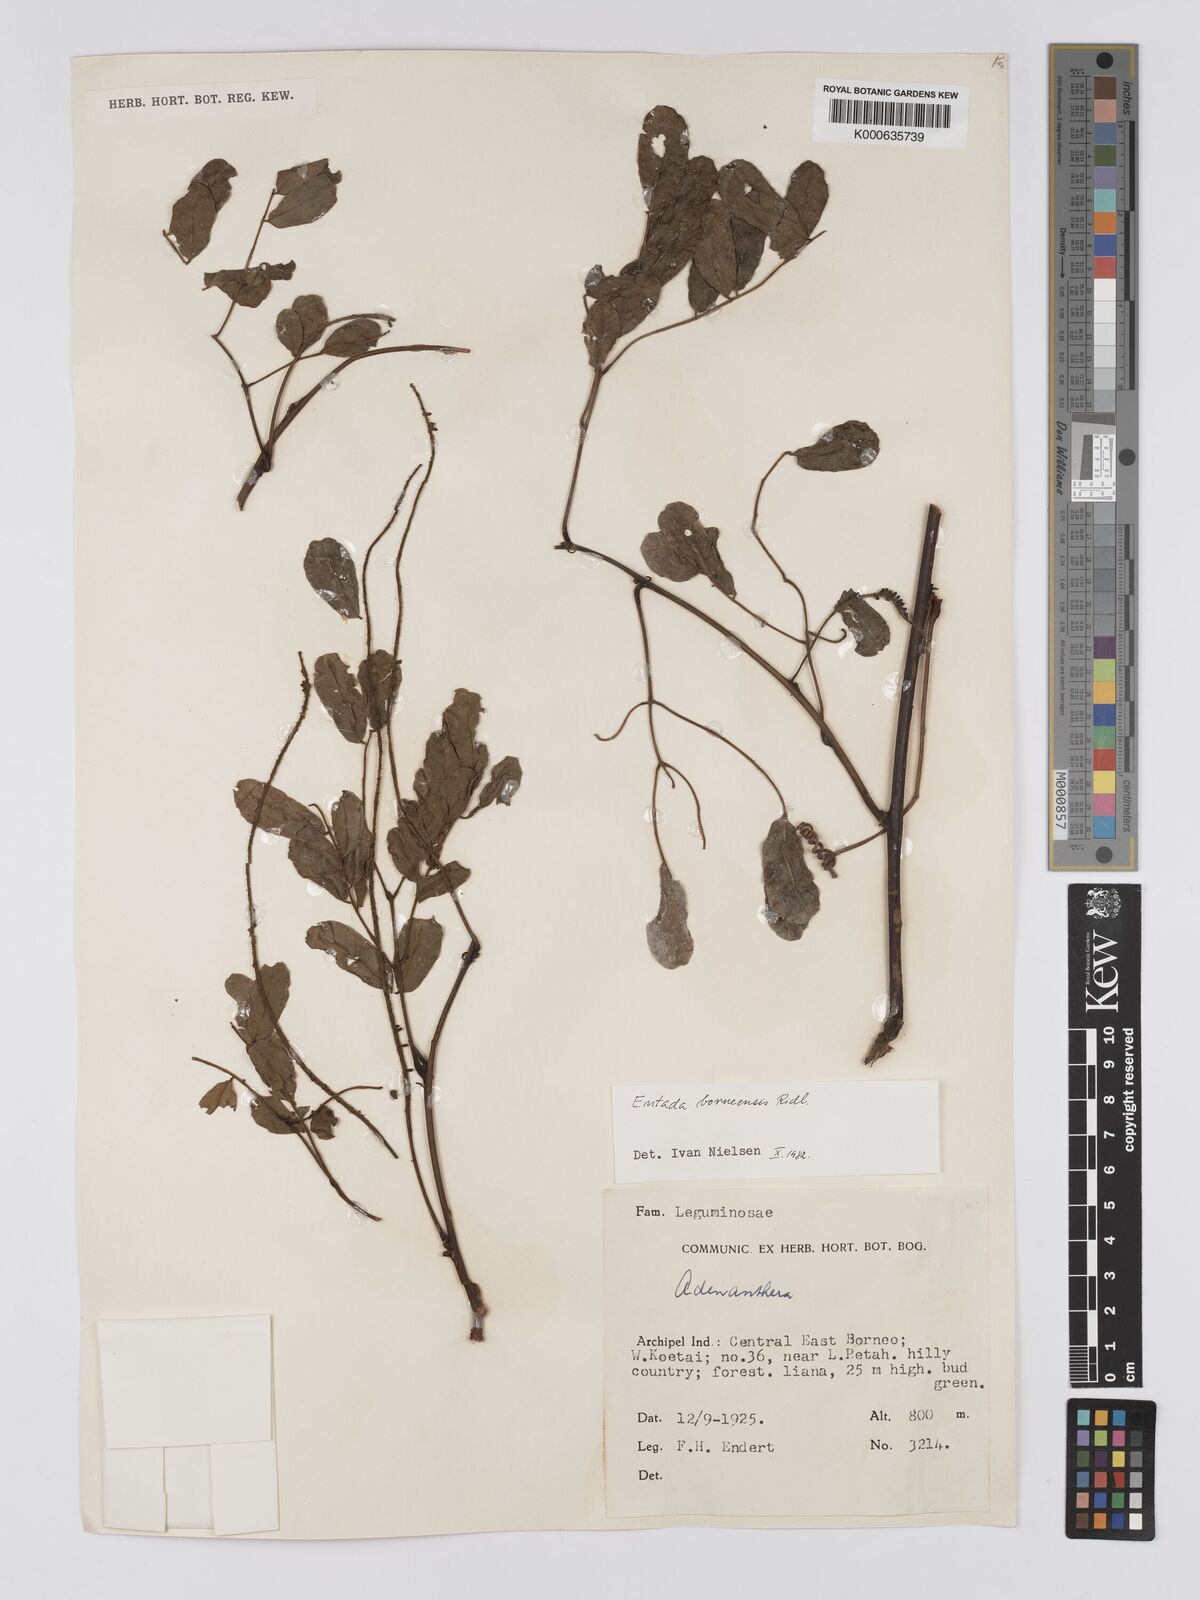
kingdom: Plantae
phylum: Tracheophyta
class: Magnoliopsida
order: Fabales
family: Fabaceae
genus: Entada
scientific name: Entada borneensis
